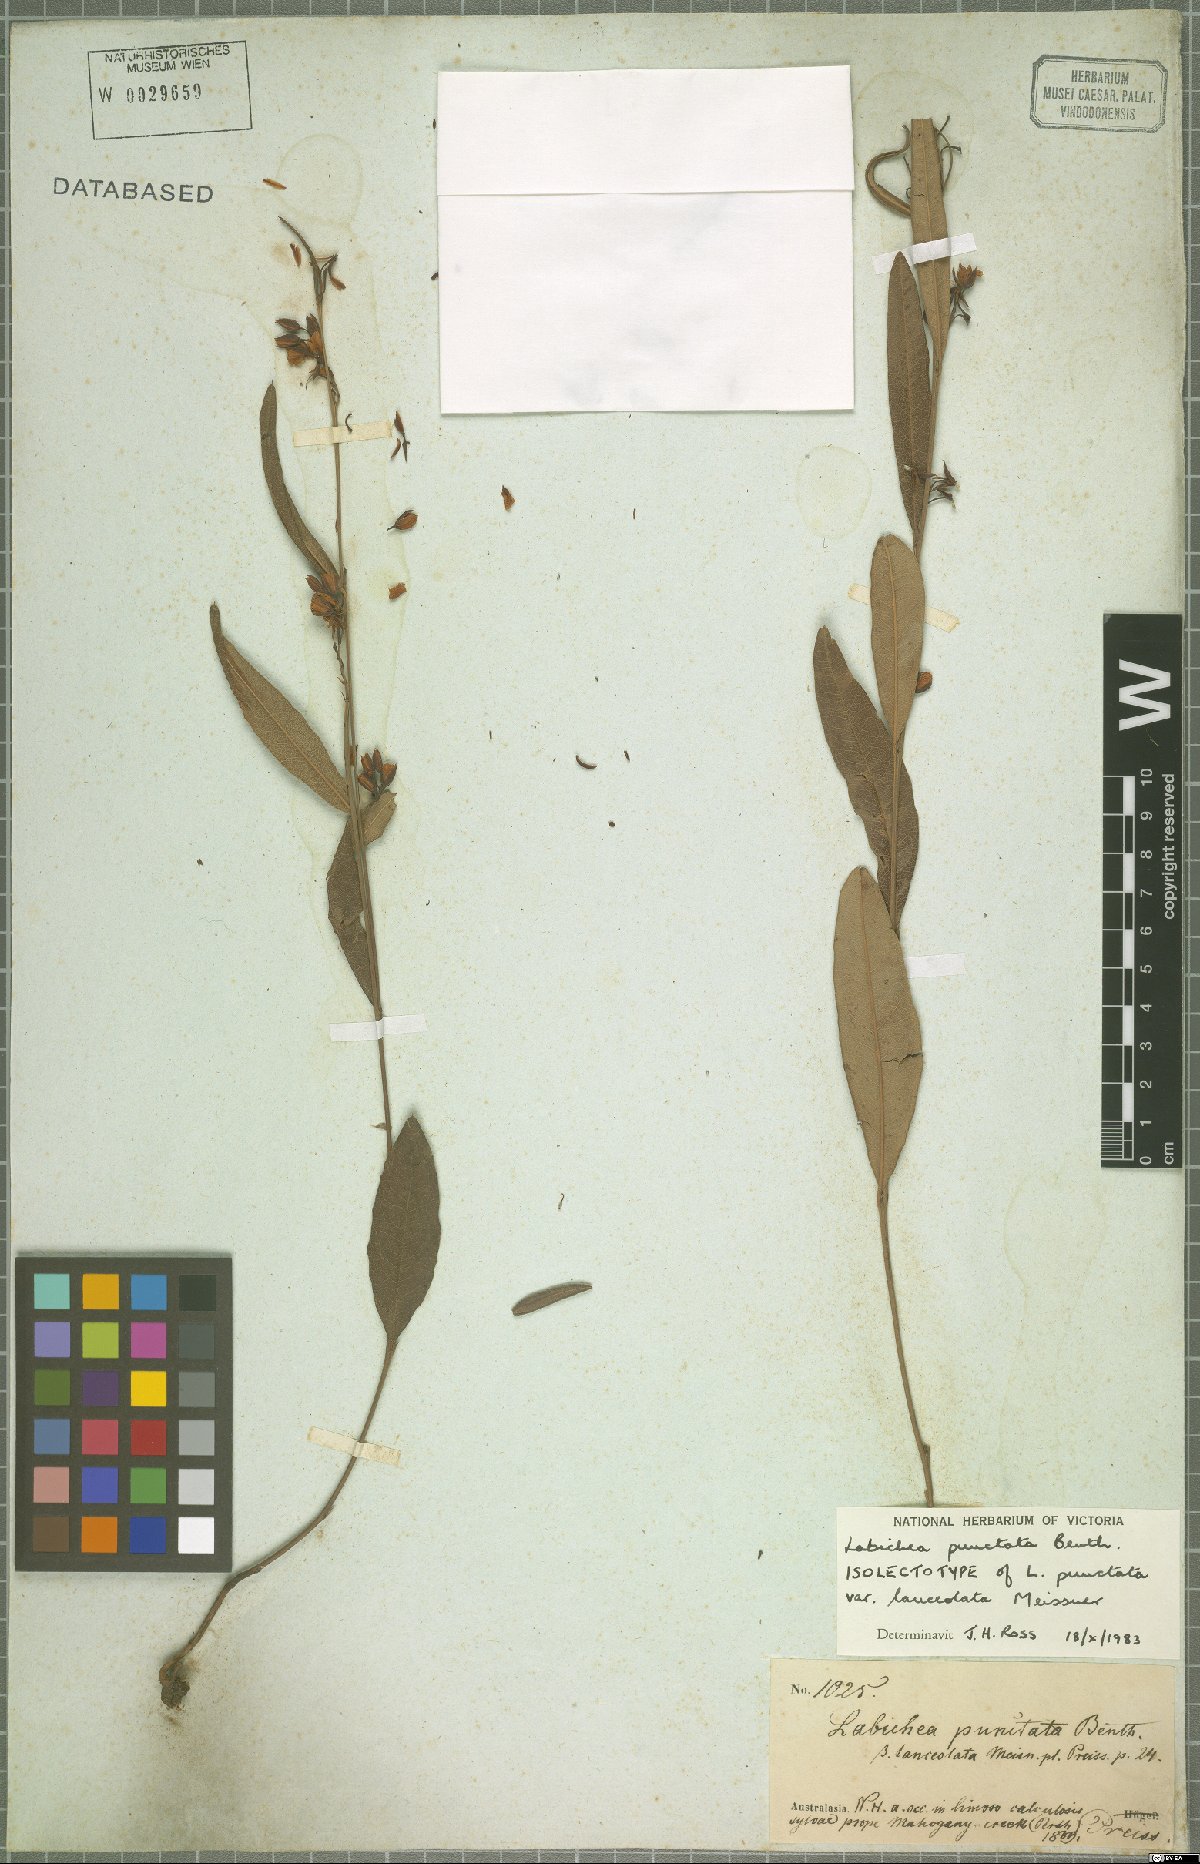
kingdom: Plantae
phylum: Tracheophyta
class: Magnoliopsida
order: Fabales
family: Fabaceae
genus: Labichea
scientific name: Labichea punctata
